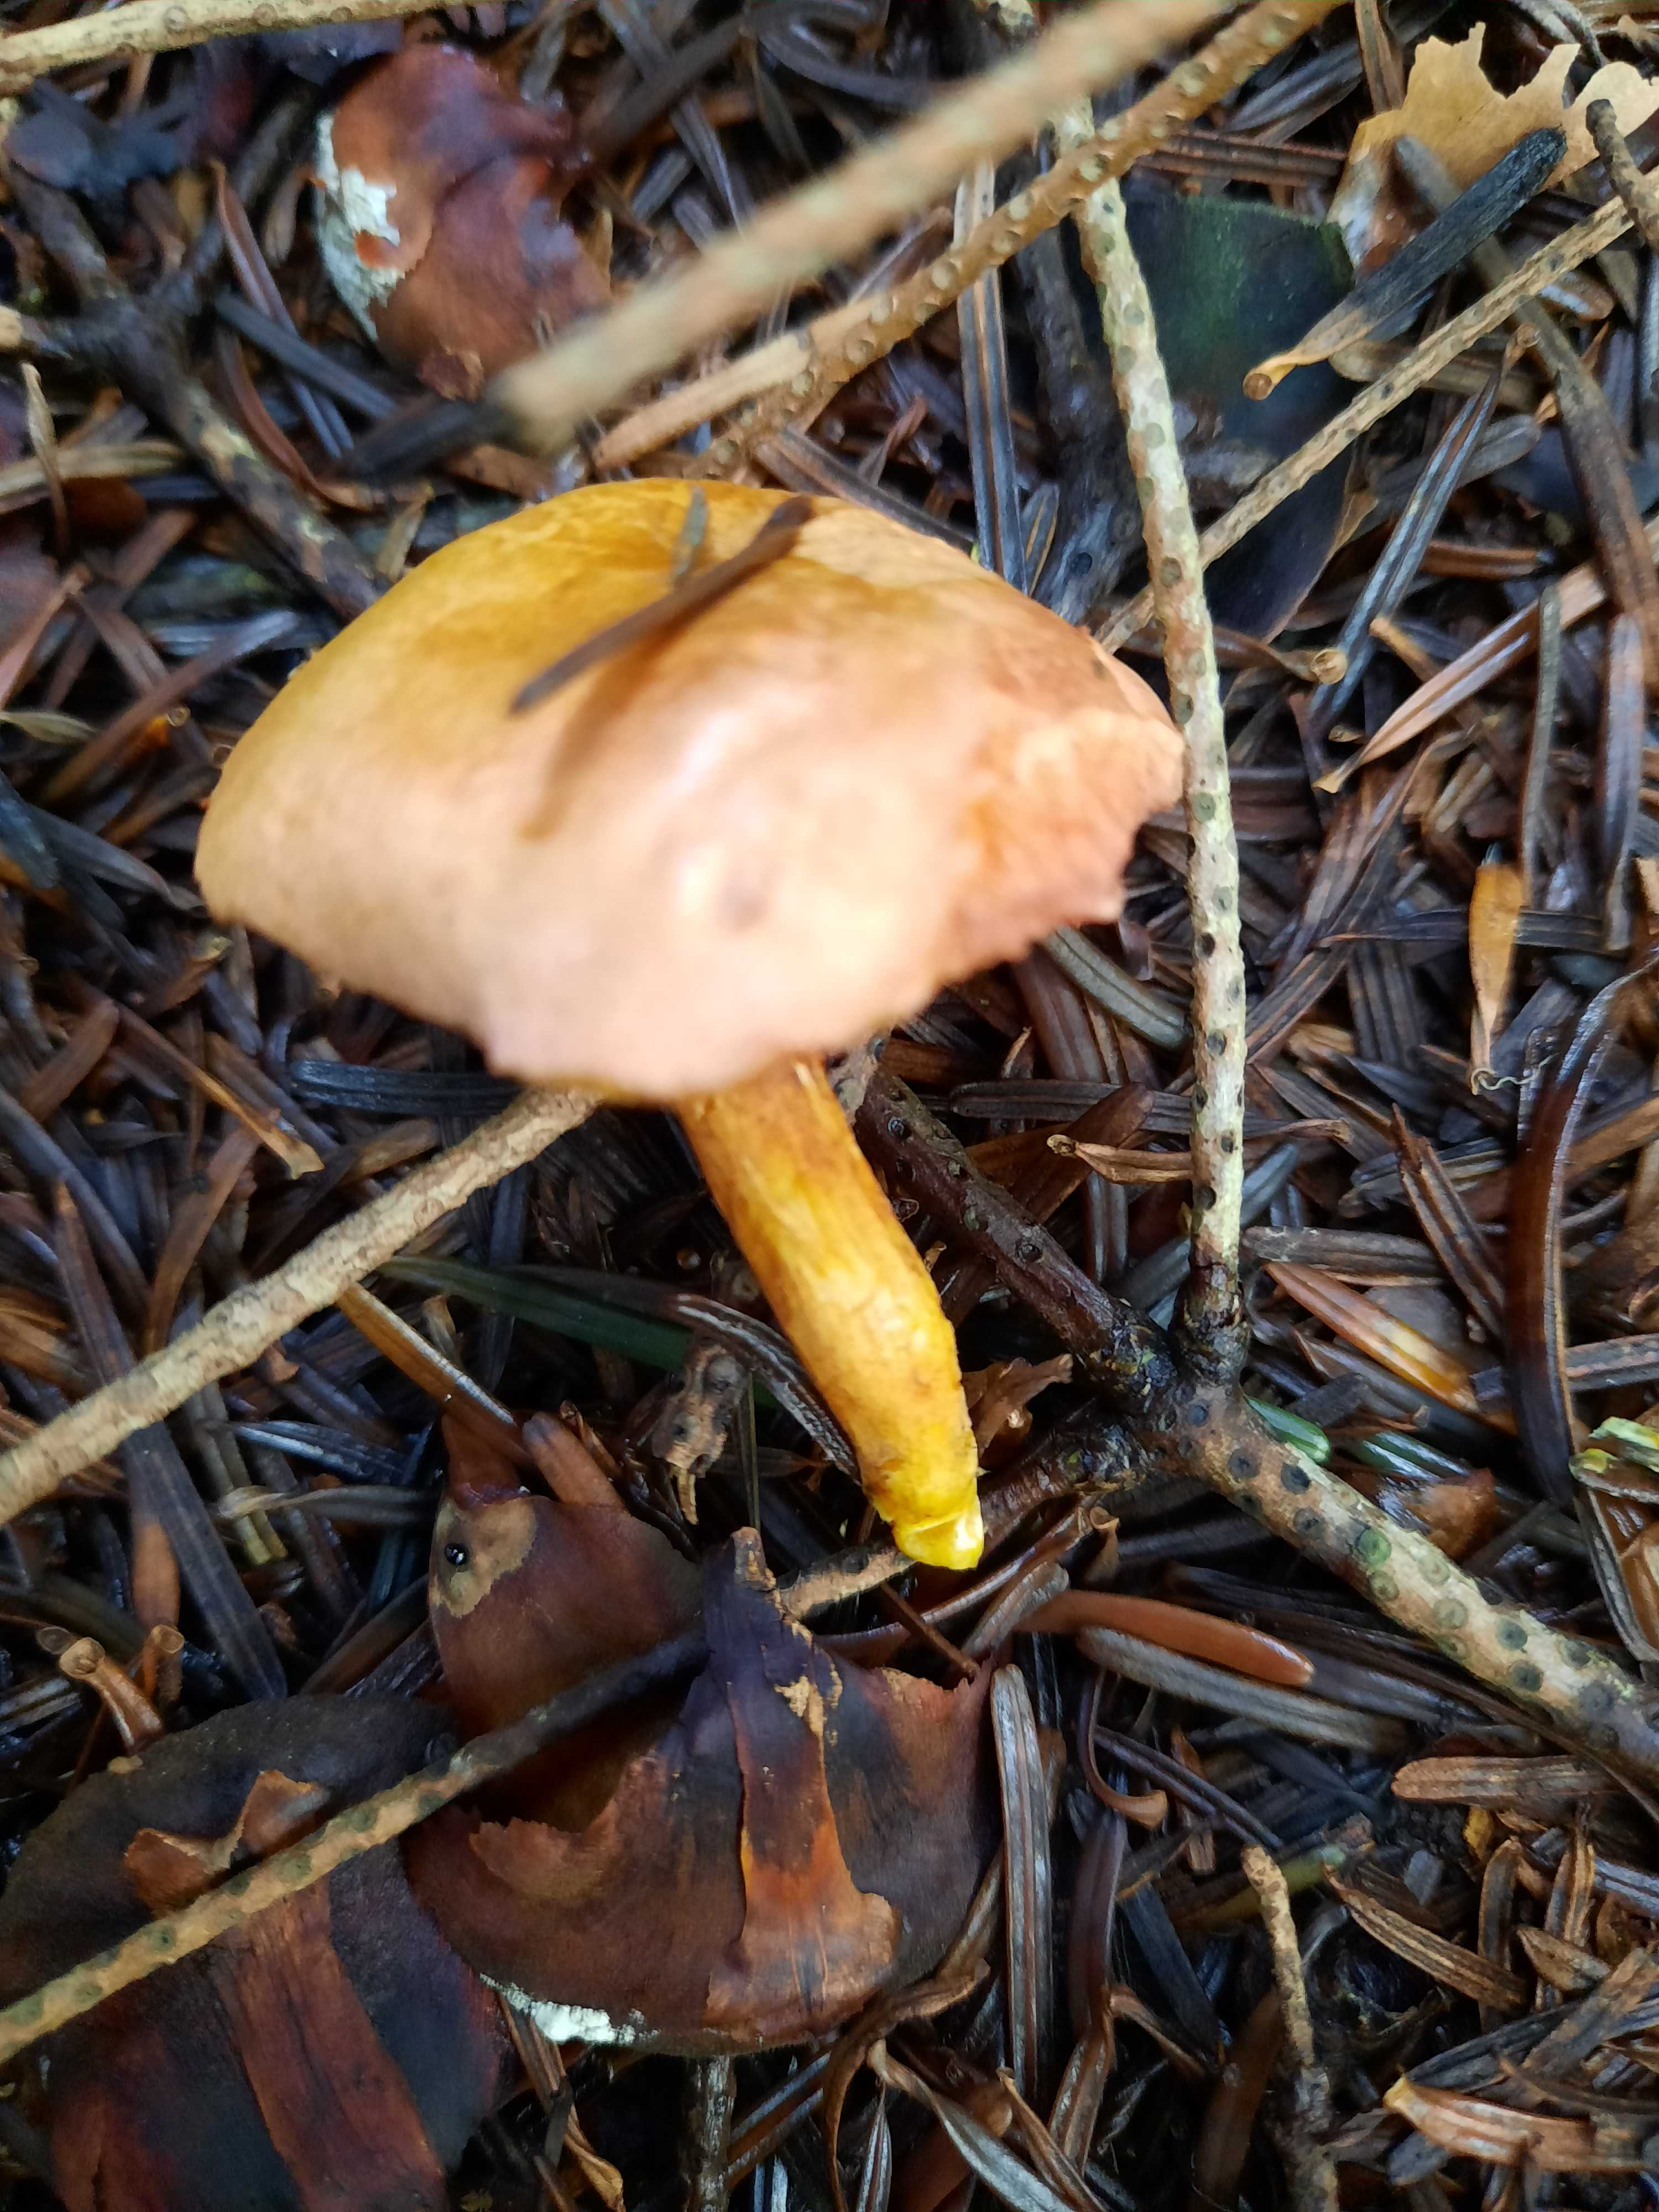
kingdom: Fungi
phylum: Basidiomycota
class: Agaricomycetes
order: Boletales
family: Boletaceae
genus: Chalciporus
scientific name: Chalciporus piperatus
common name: peberrørhat
